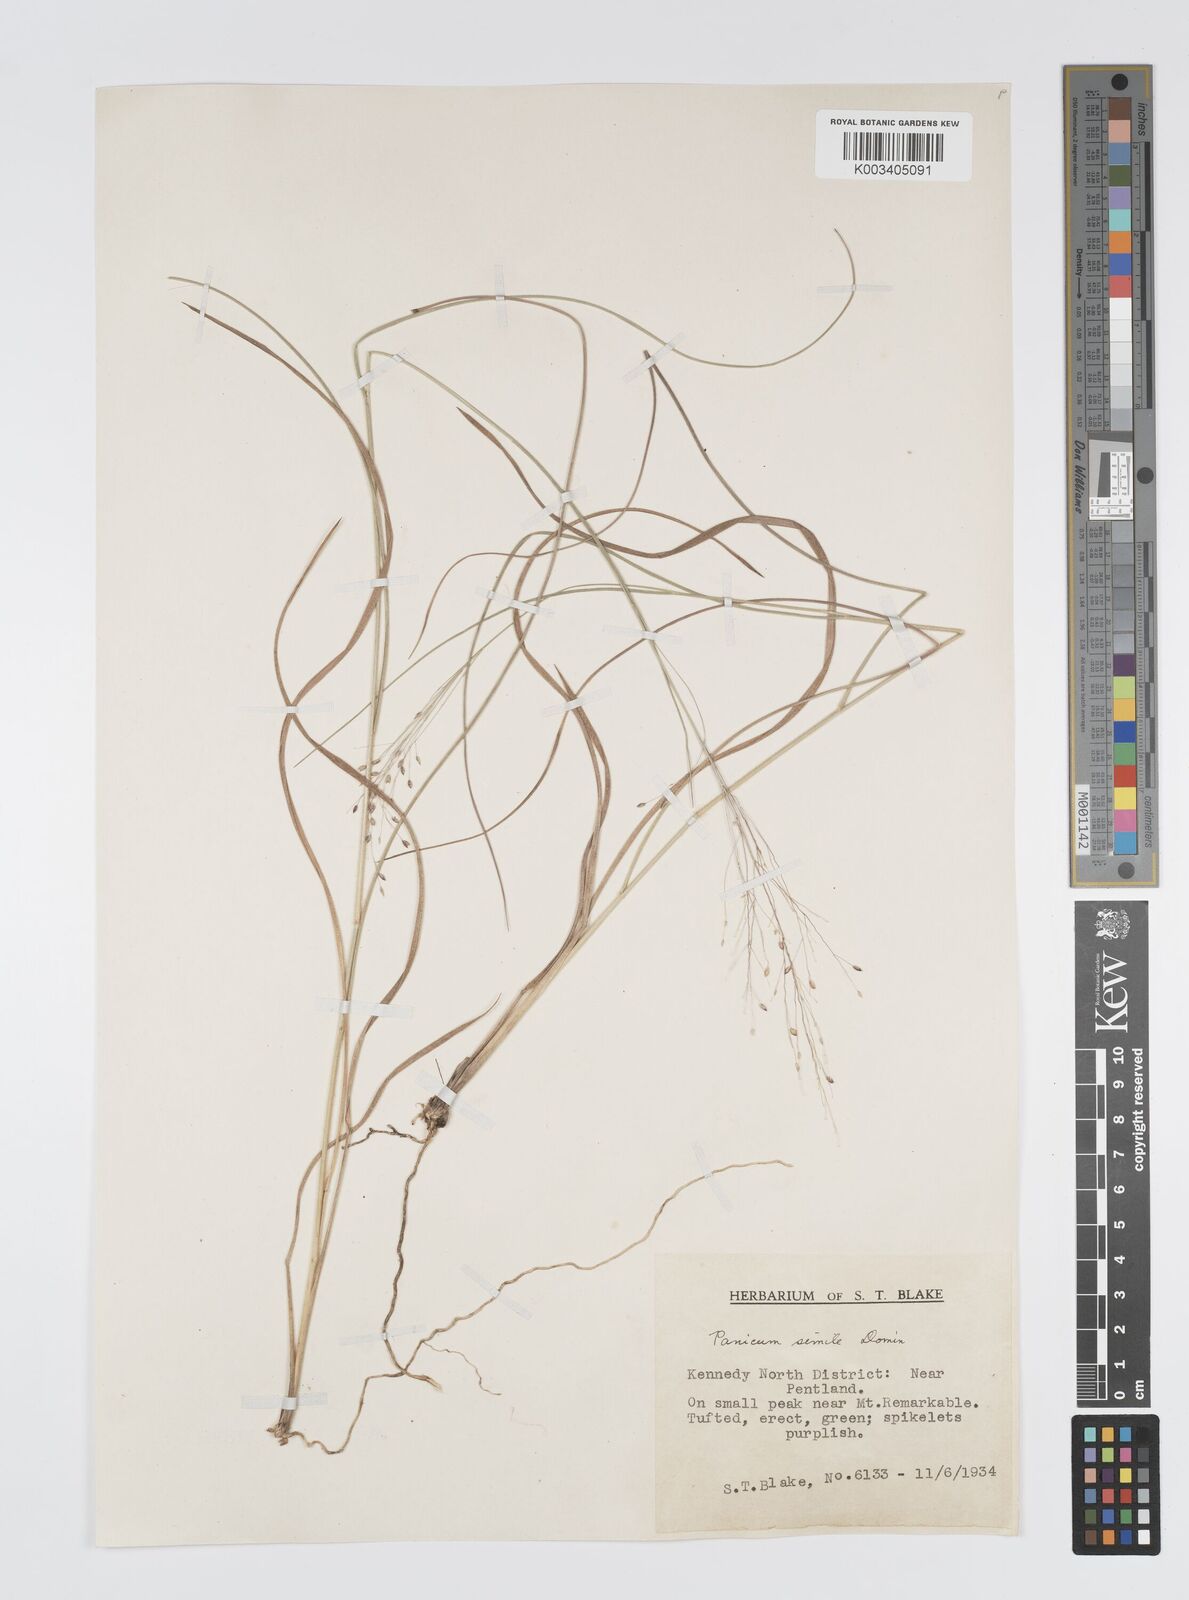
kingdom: Plantae
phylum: Tracheophyta
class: Liliopsida
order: Poales
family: Poaceae
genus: Panicum
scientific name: Panicum simile
